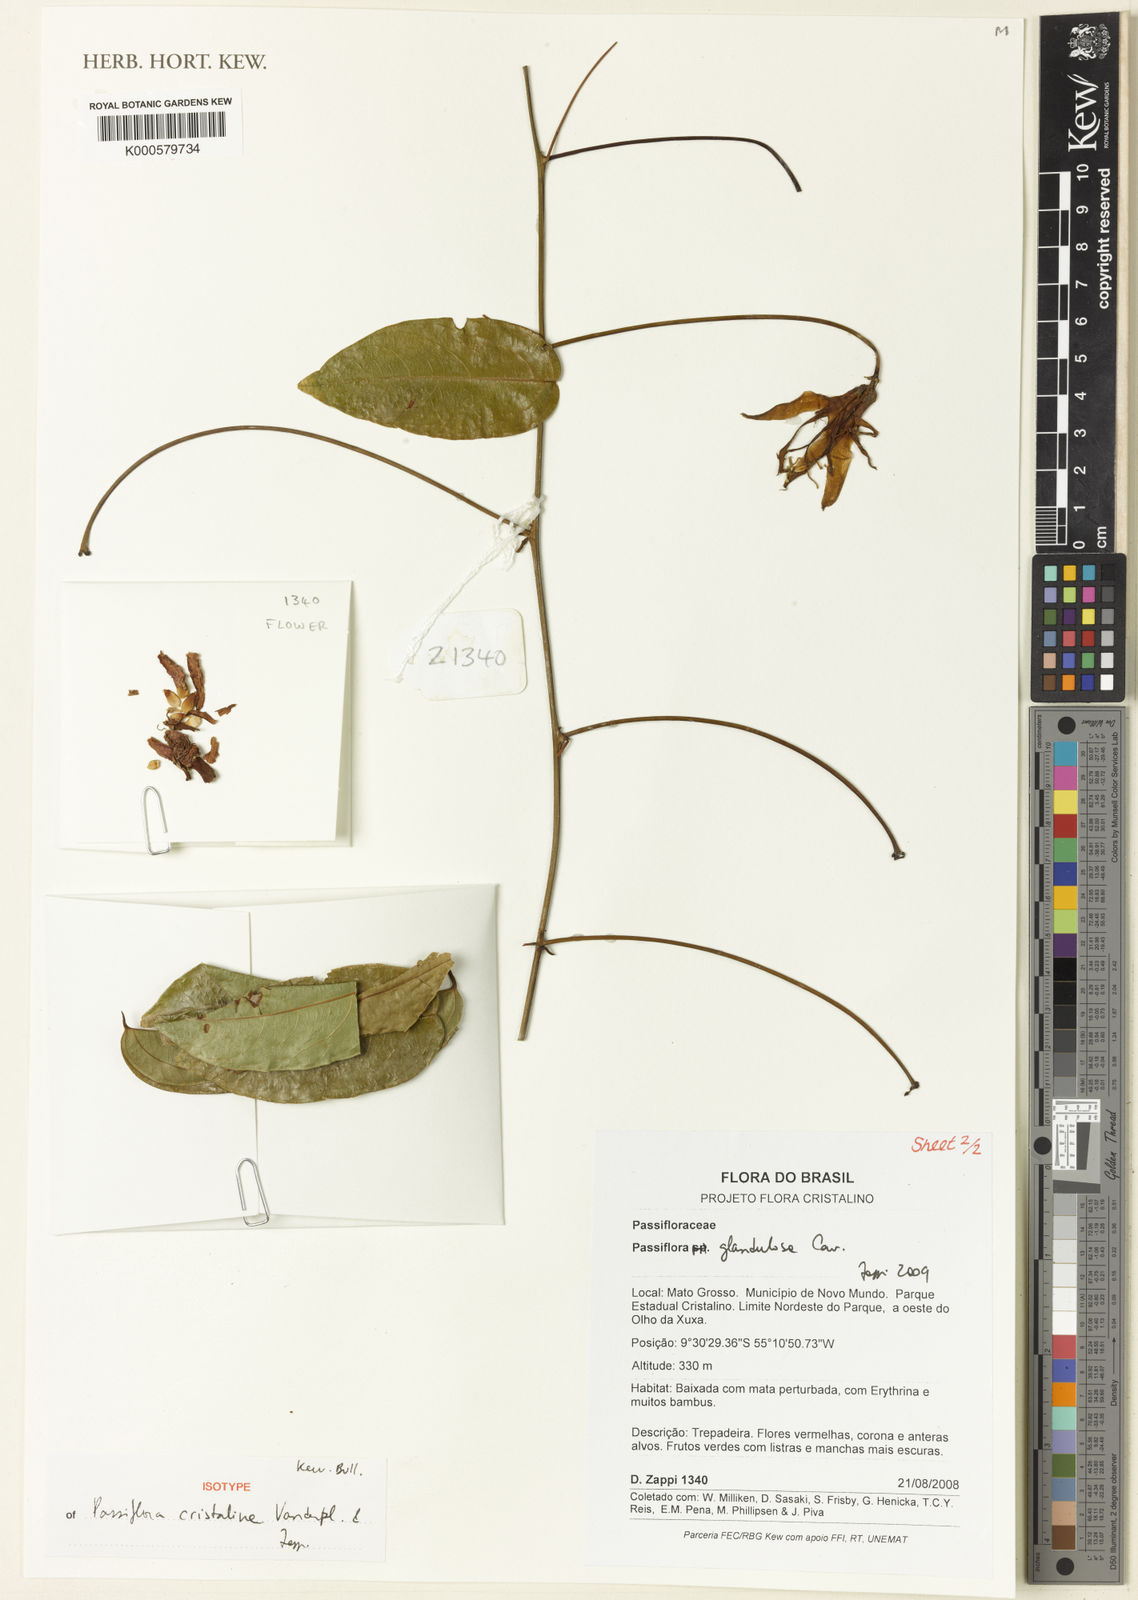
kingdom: Plantae
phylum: Tracheophyta
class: Magnoliopsida
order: Malpighiales
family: Passifloraceae
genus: Passiflora
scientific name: Passiflora cristalina
